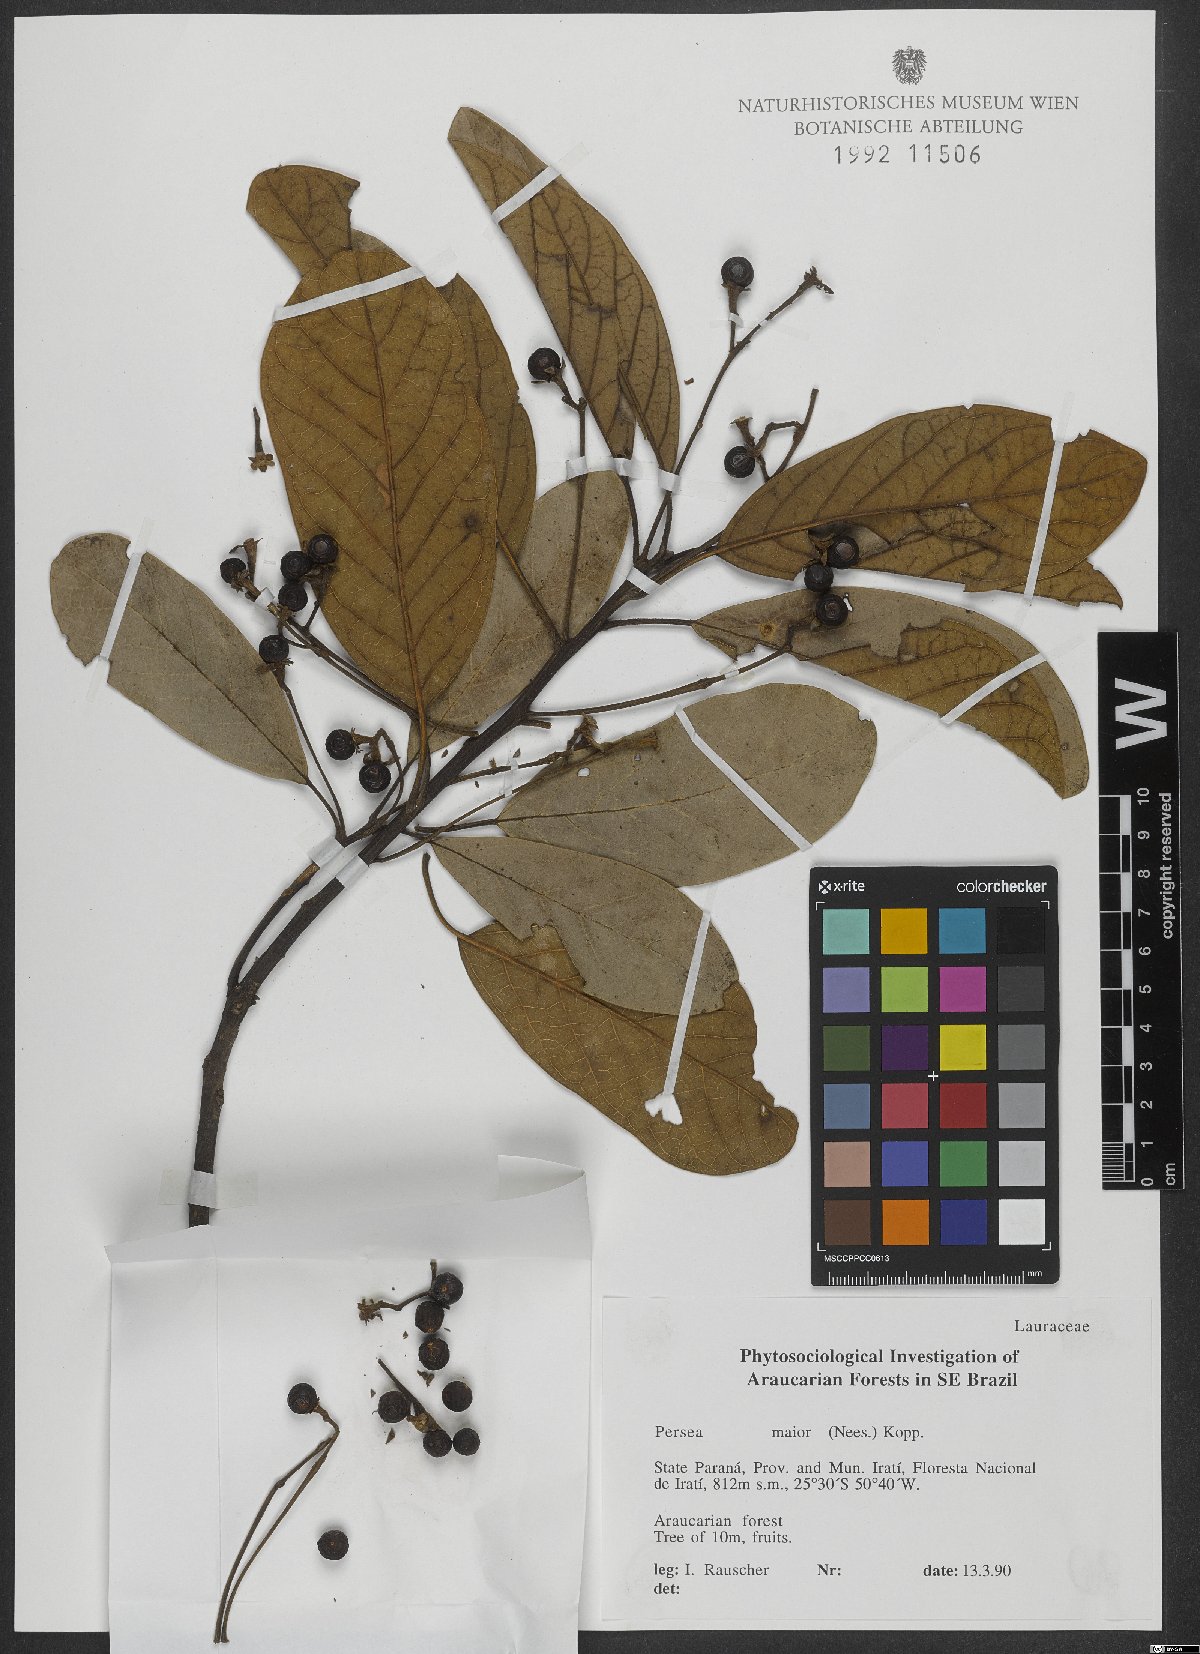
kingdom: Plantae
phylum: Tracheophyta
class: Magnoliopsida
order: Laurales
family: Lauraceae
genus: Persea
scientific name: Persea major
